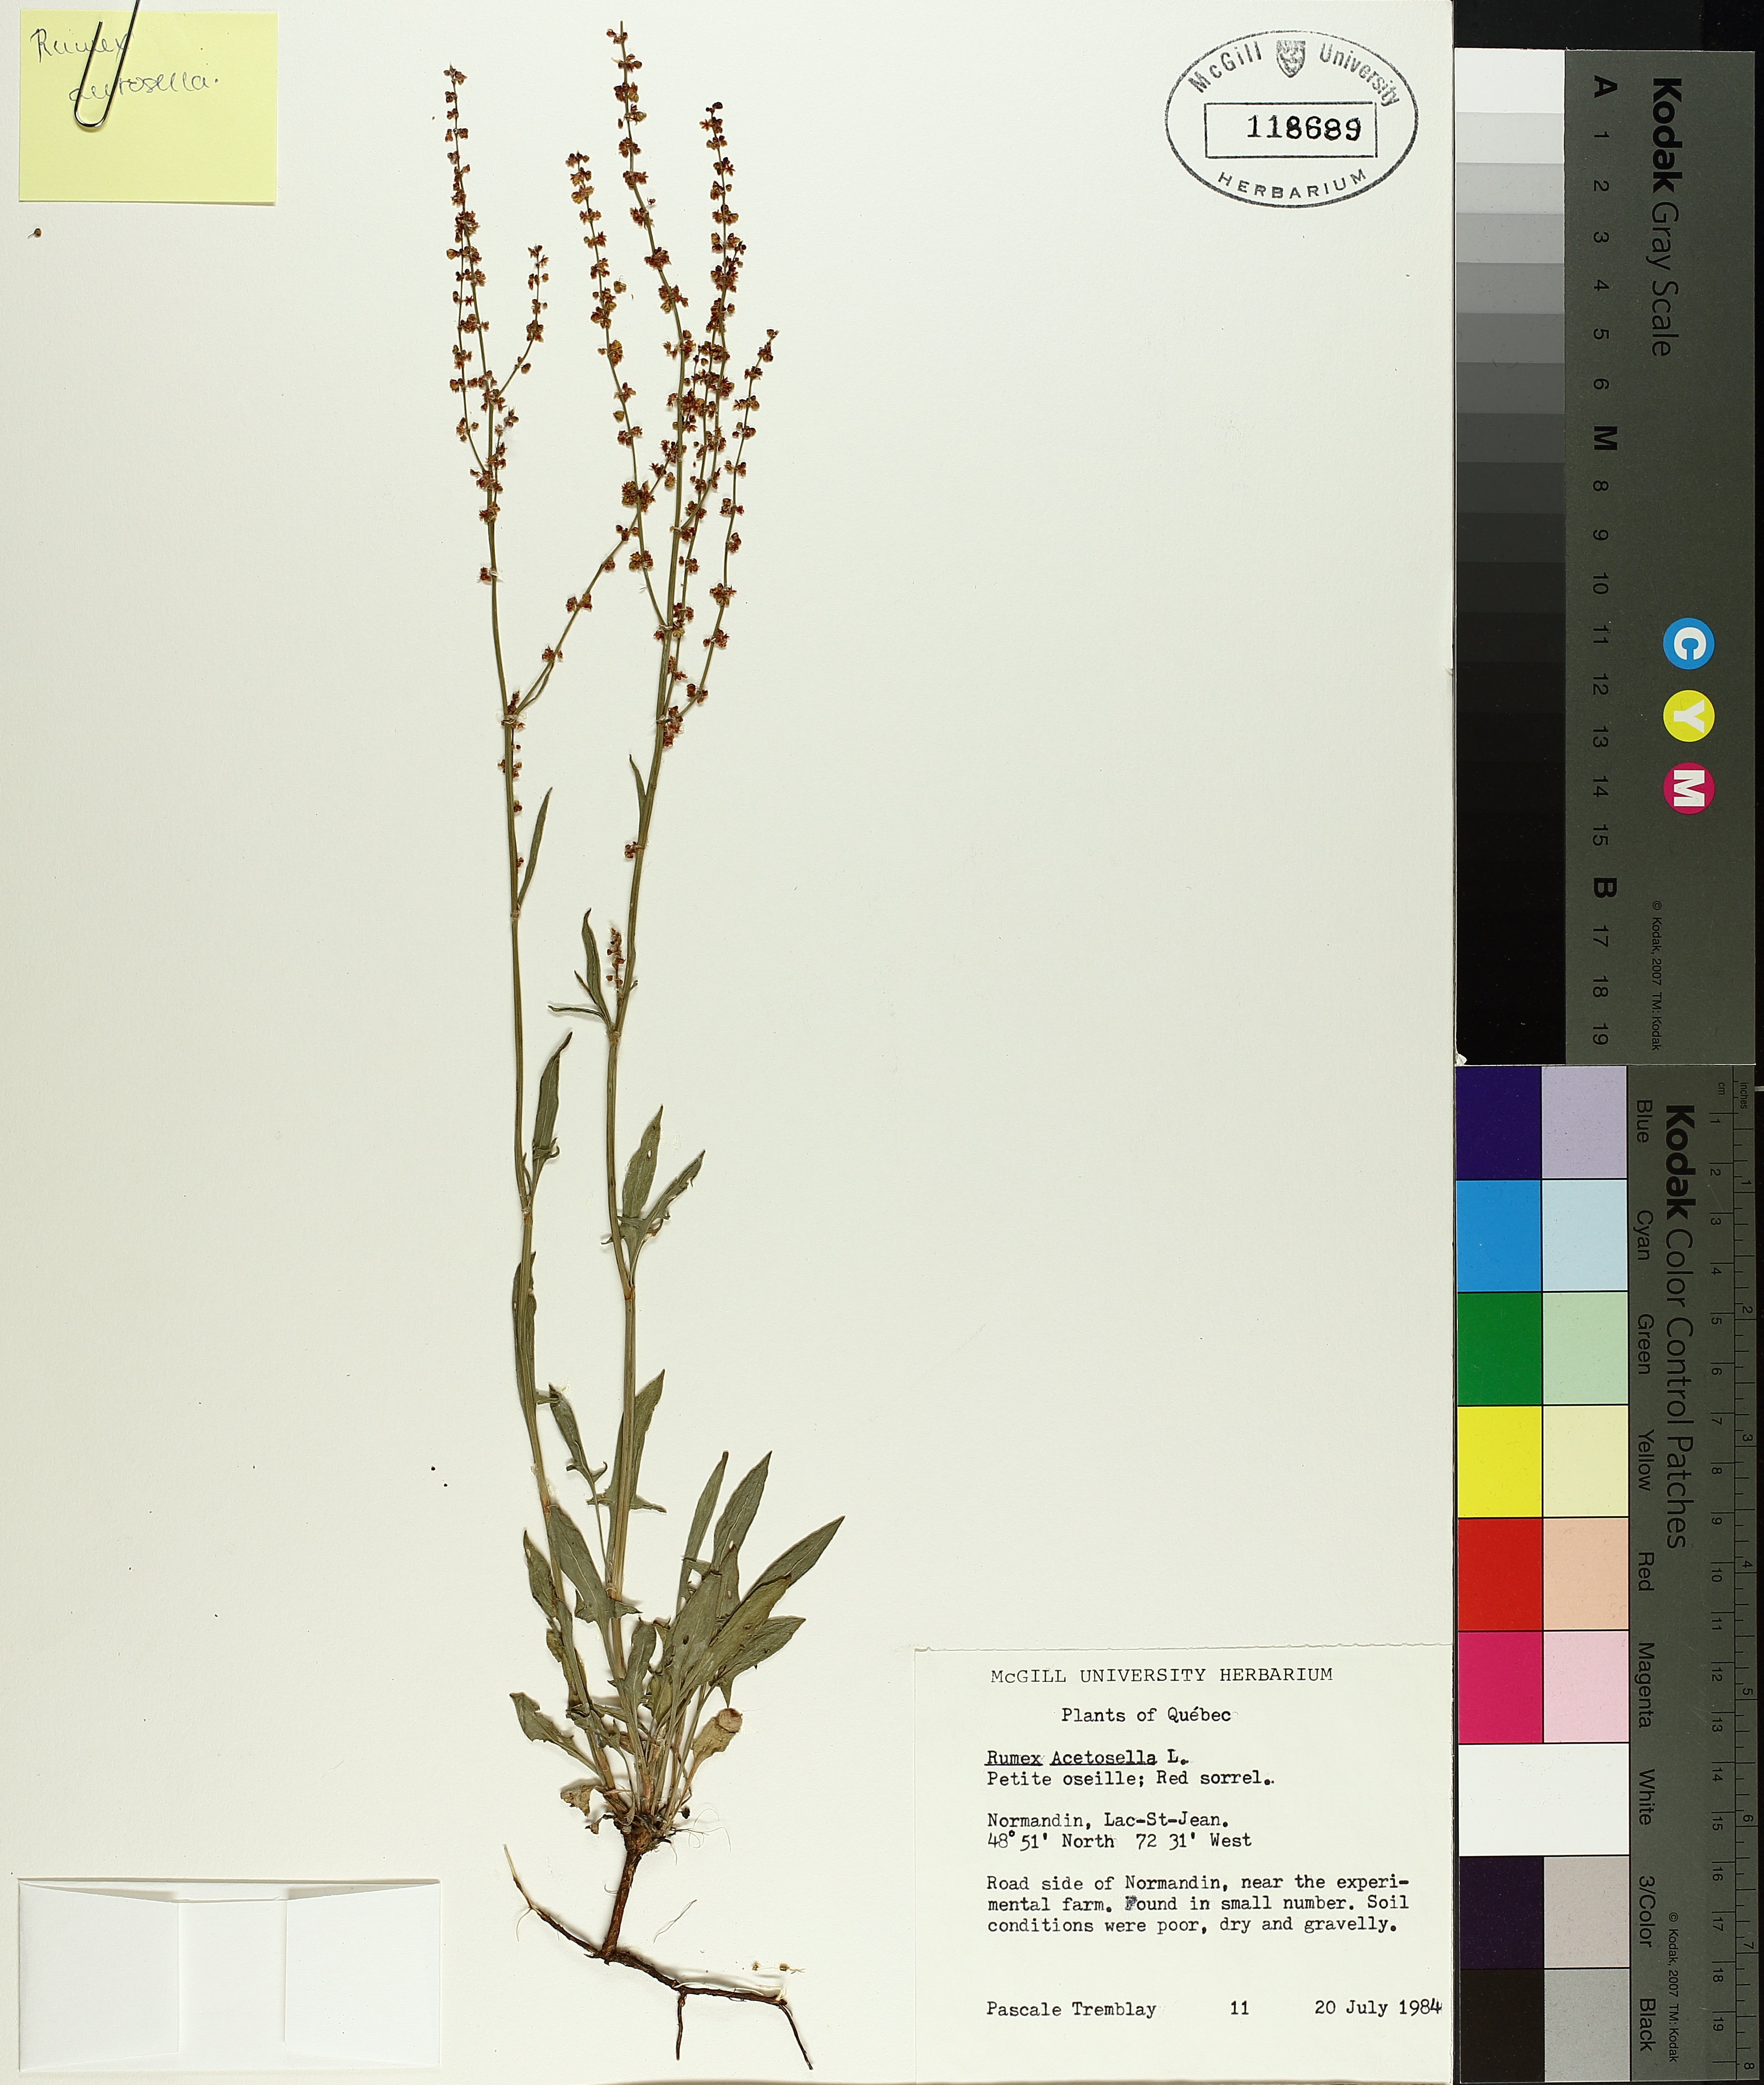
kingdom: Plantae
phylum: Tracheophyta
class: Magnoliopsida
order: Caryophyllales
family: Polygonaceae
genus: Rumex
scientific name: Rumex acetosella
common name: Common sheep sorrel
